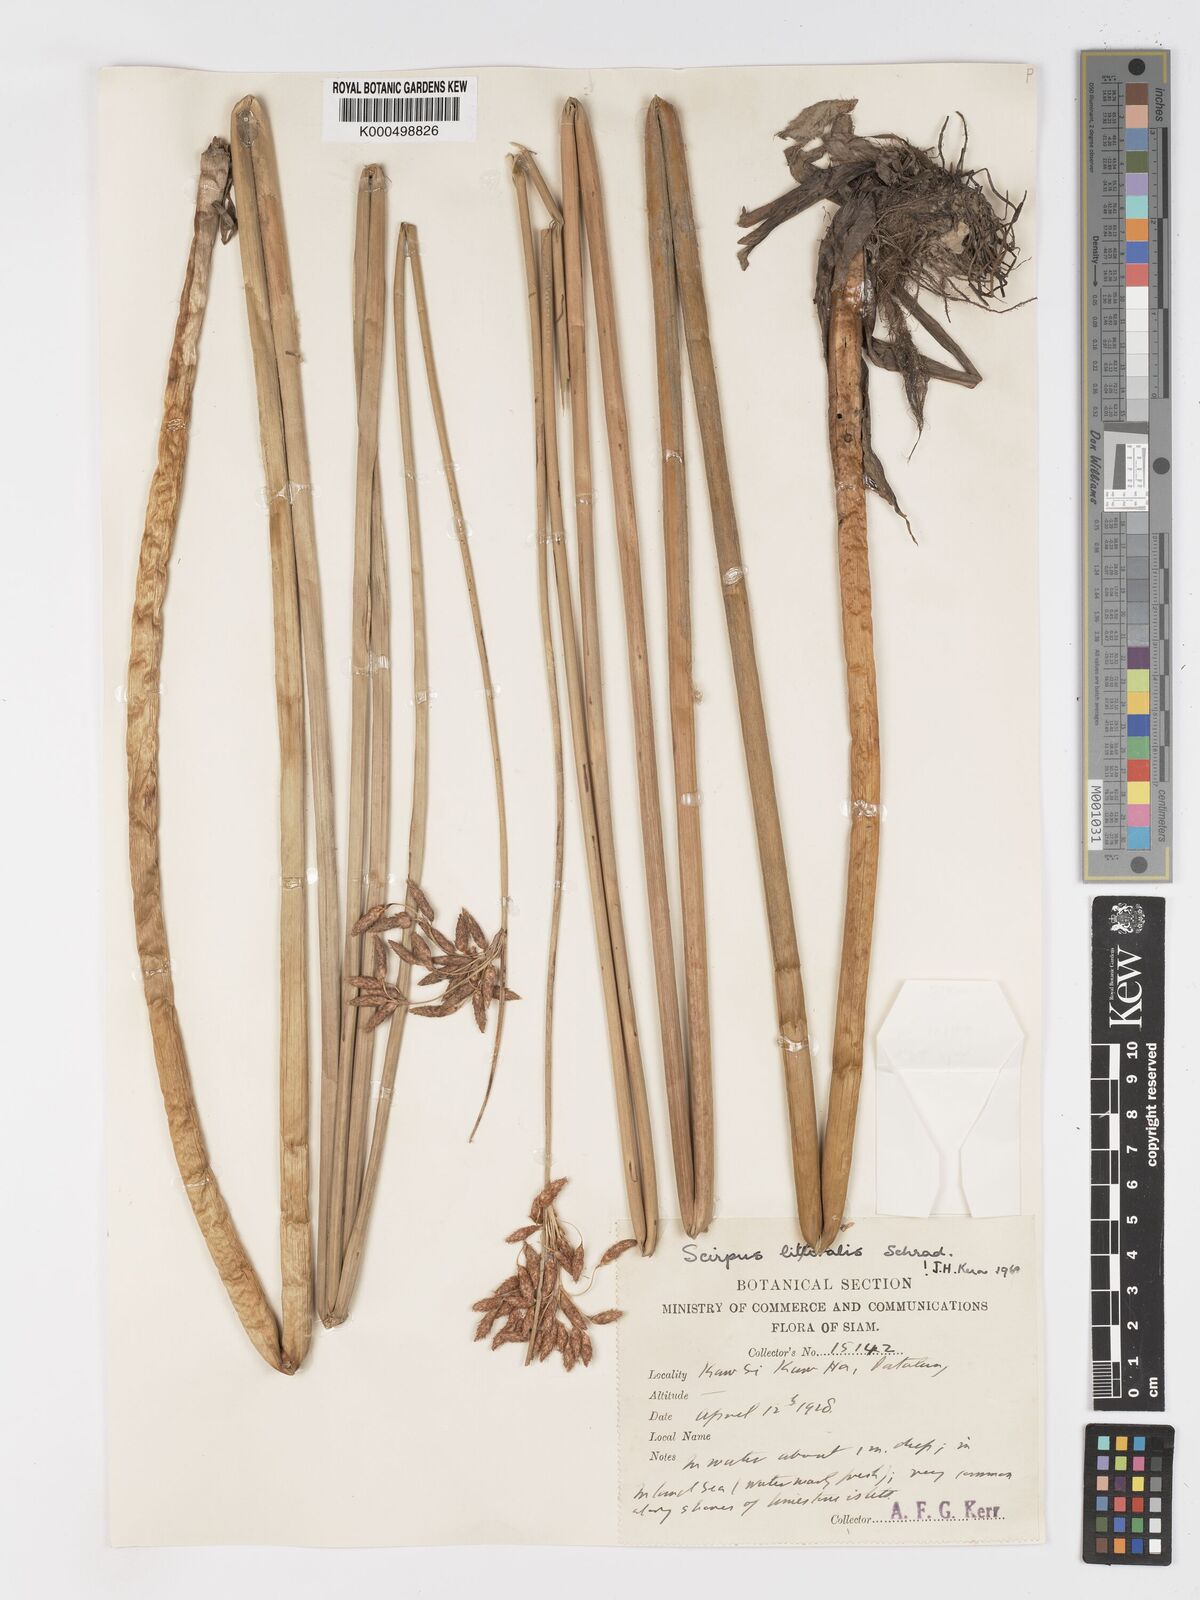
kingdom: Plantae
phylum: Tracheophyta
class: Liliopsida
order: Poales
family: Cyperaceae
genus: Schoenoplectus
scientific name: Schoenoplectus litoralis
